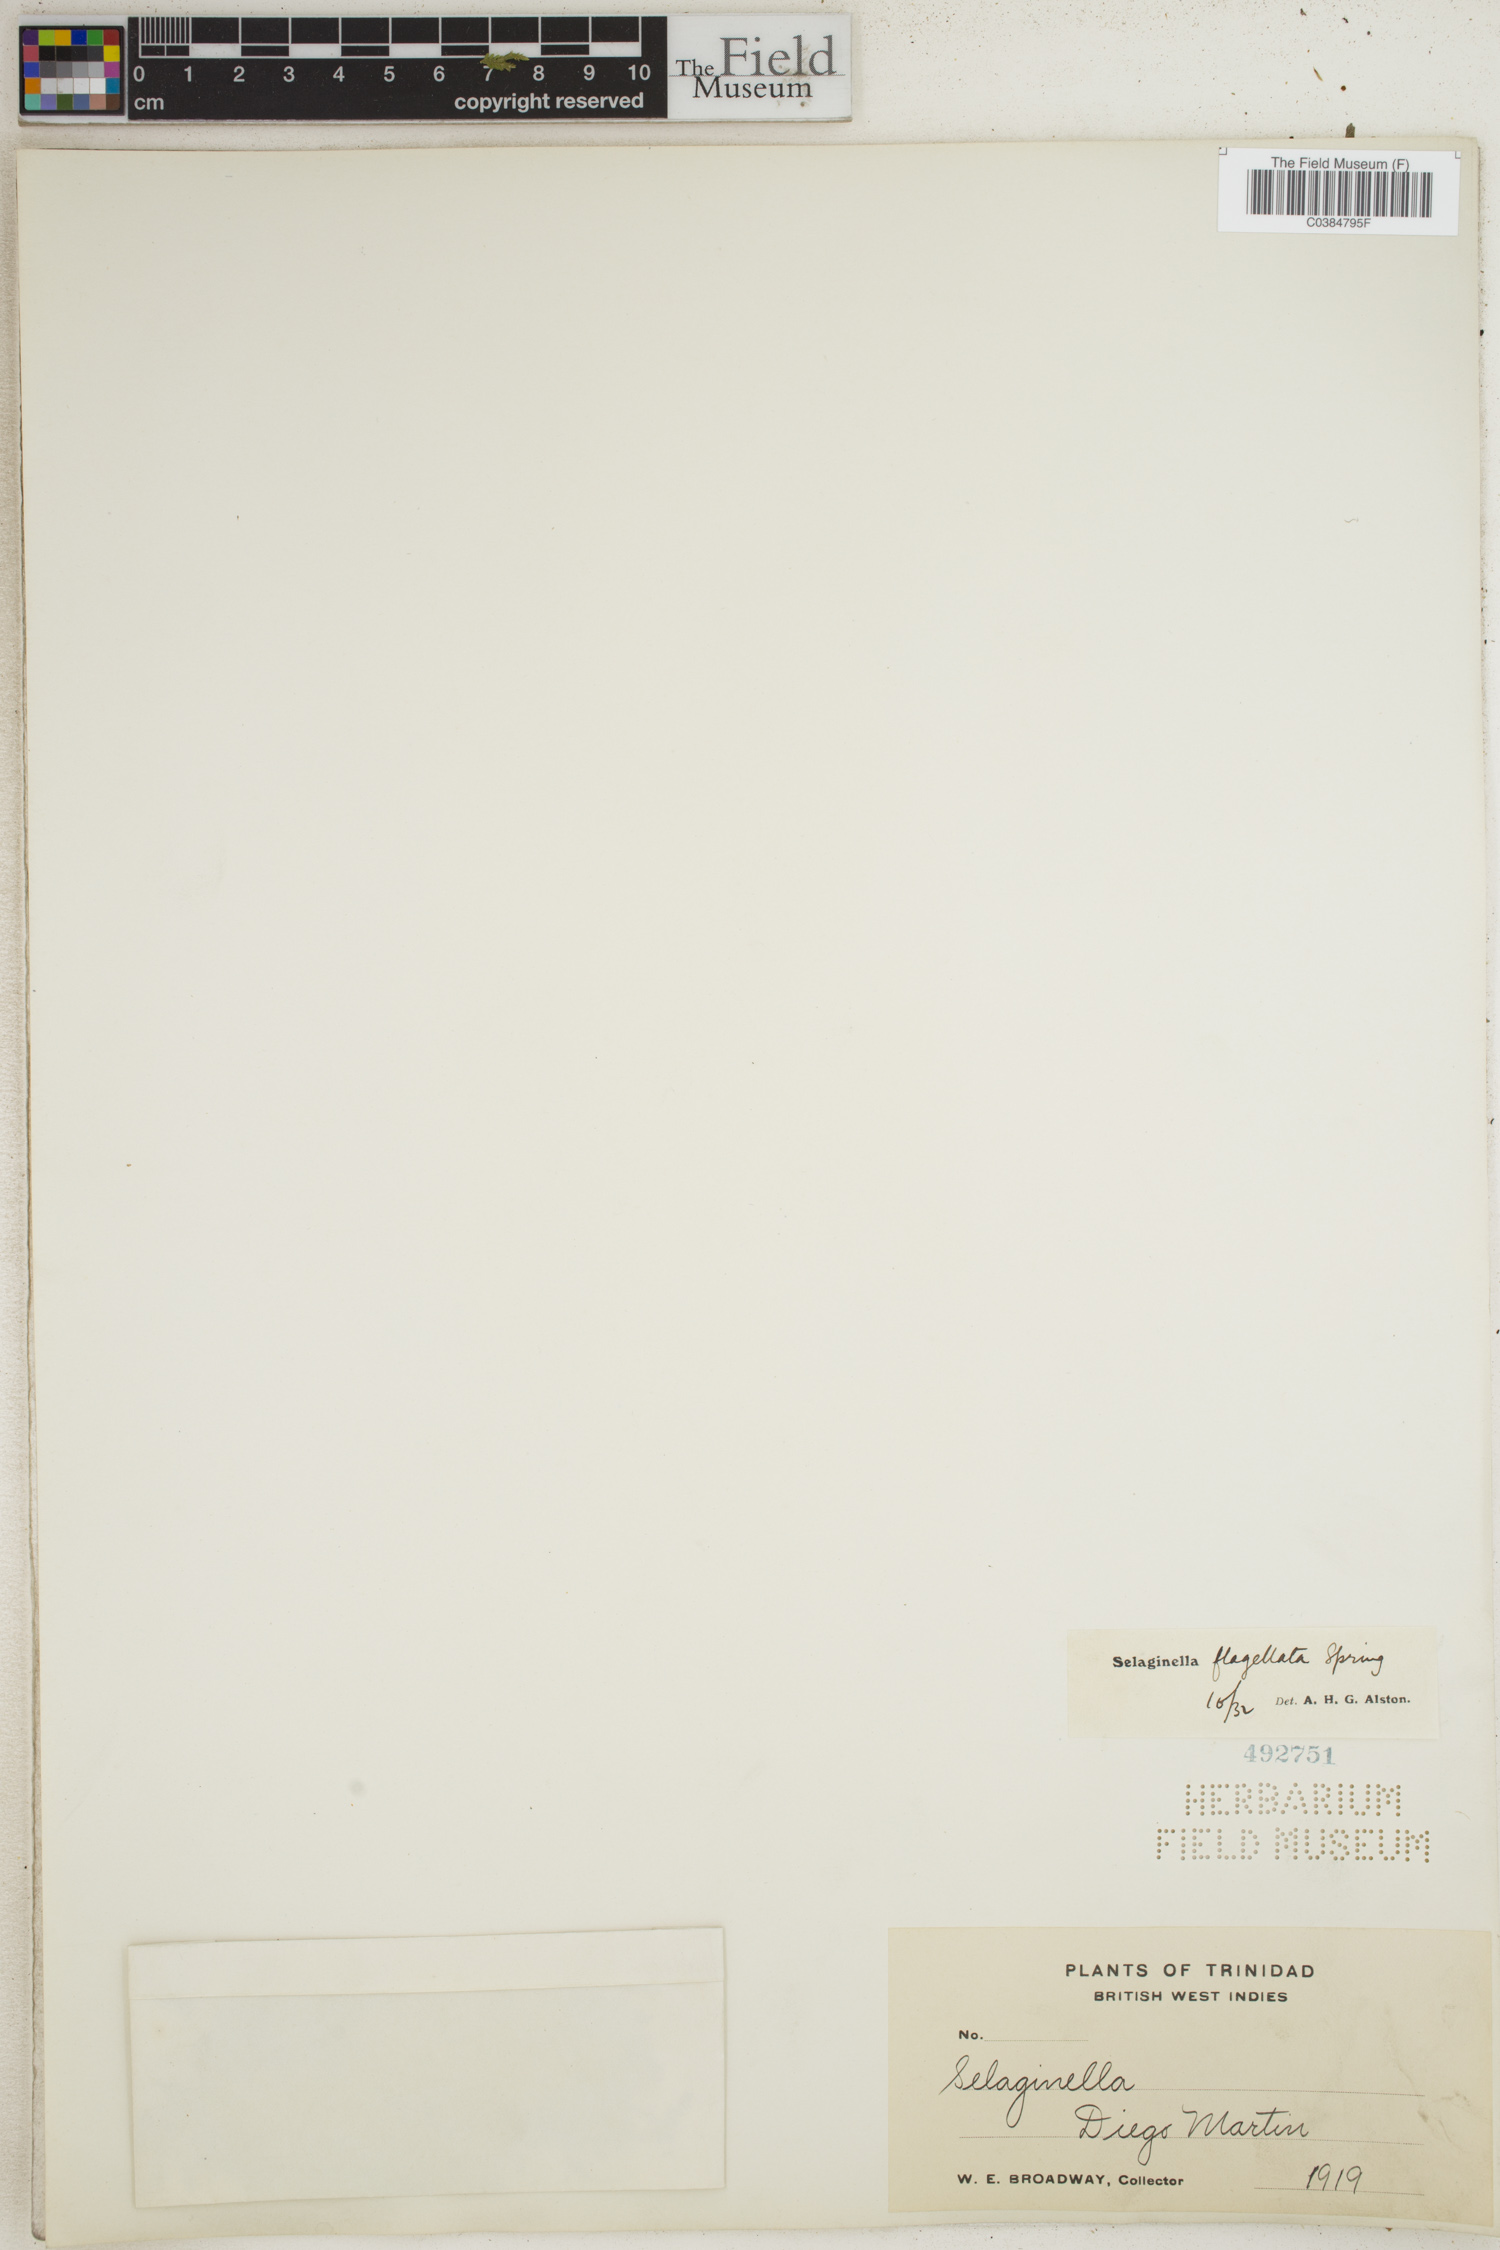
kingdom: Plantae
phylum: Tracheophyta
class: Lycopodiopsida
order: Selaginellales
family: Selaginellaceae
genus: Selaginella
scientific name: Selaginella flagellata
